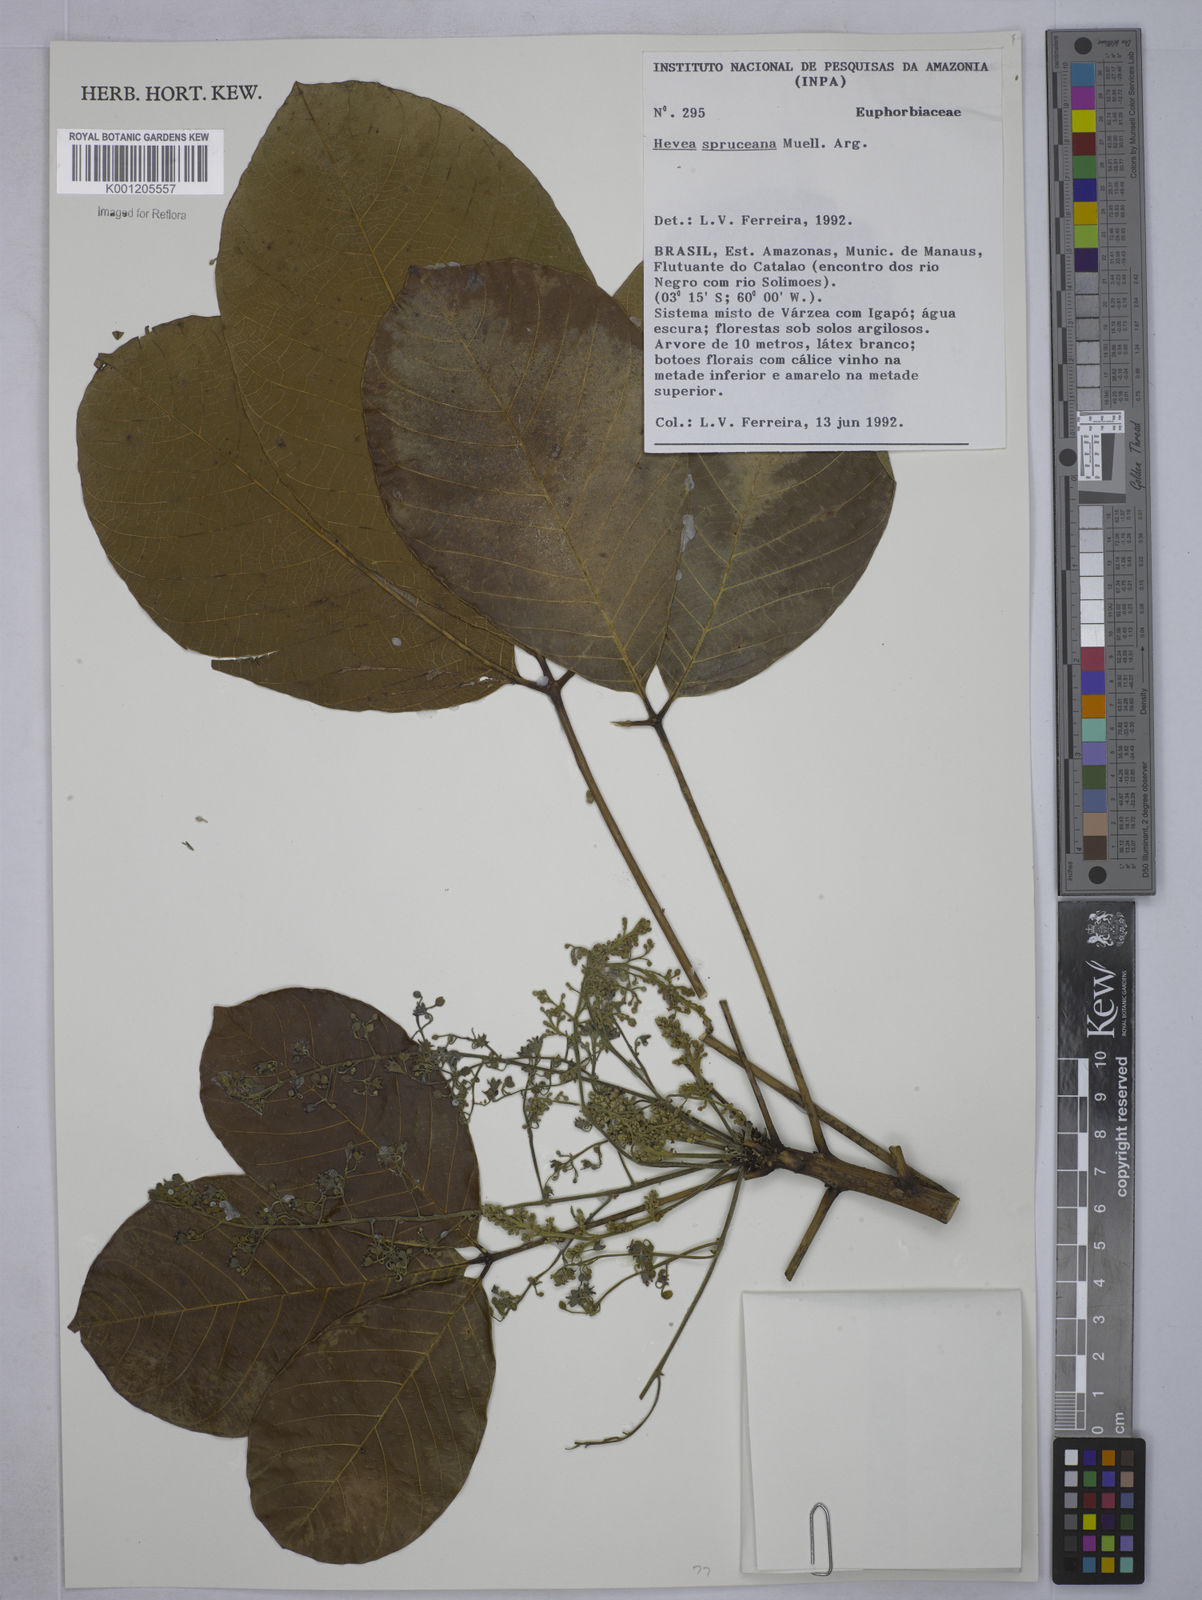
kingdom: Plantae
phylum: Tracheophyta
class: Magnoliopsida
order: Malpighiales
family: Euphorbiaceae
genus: Hevea
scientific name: Hevea
